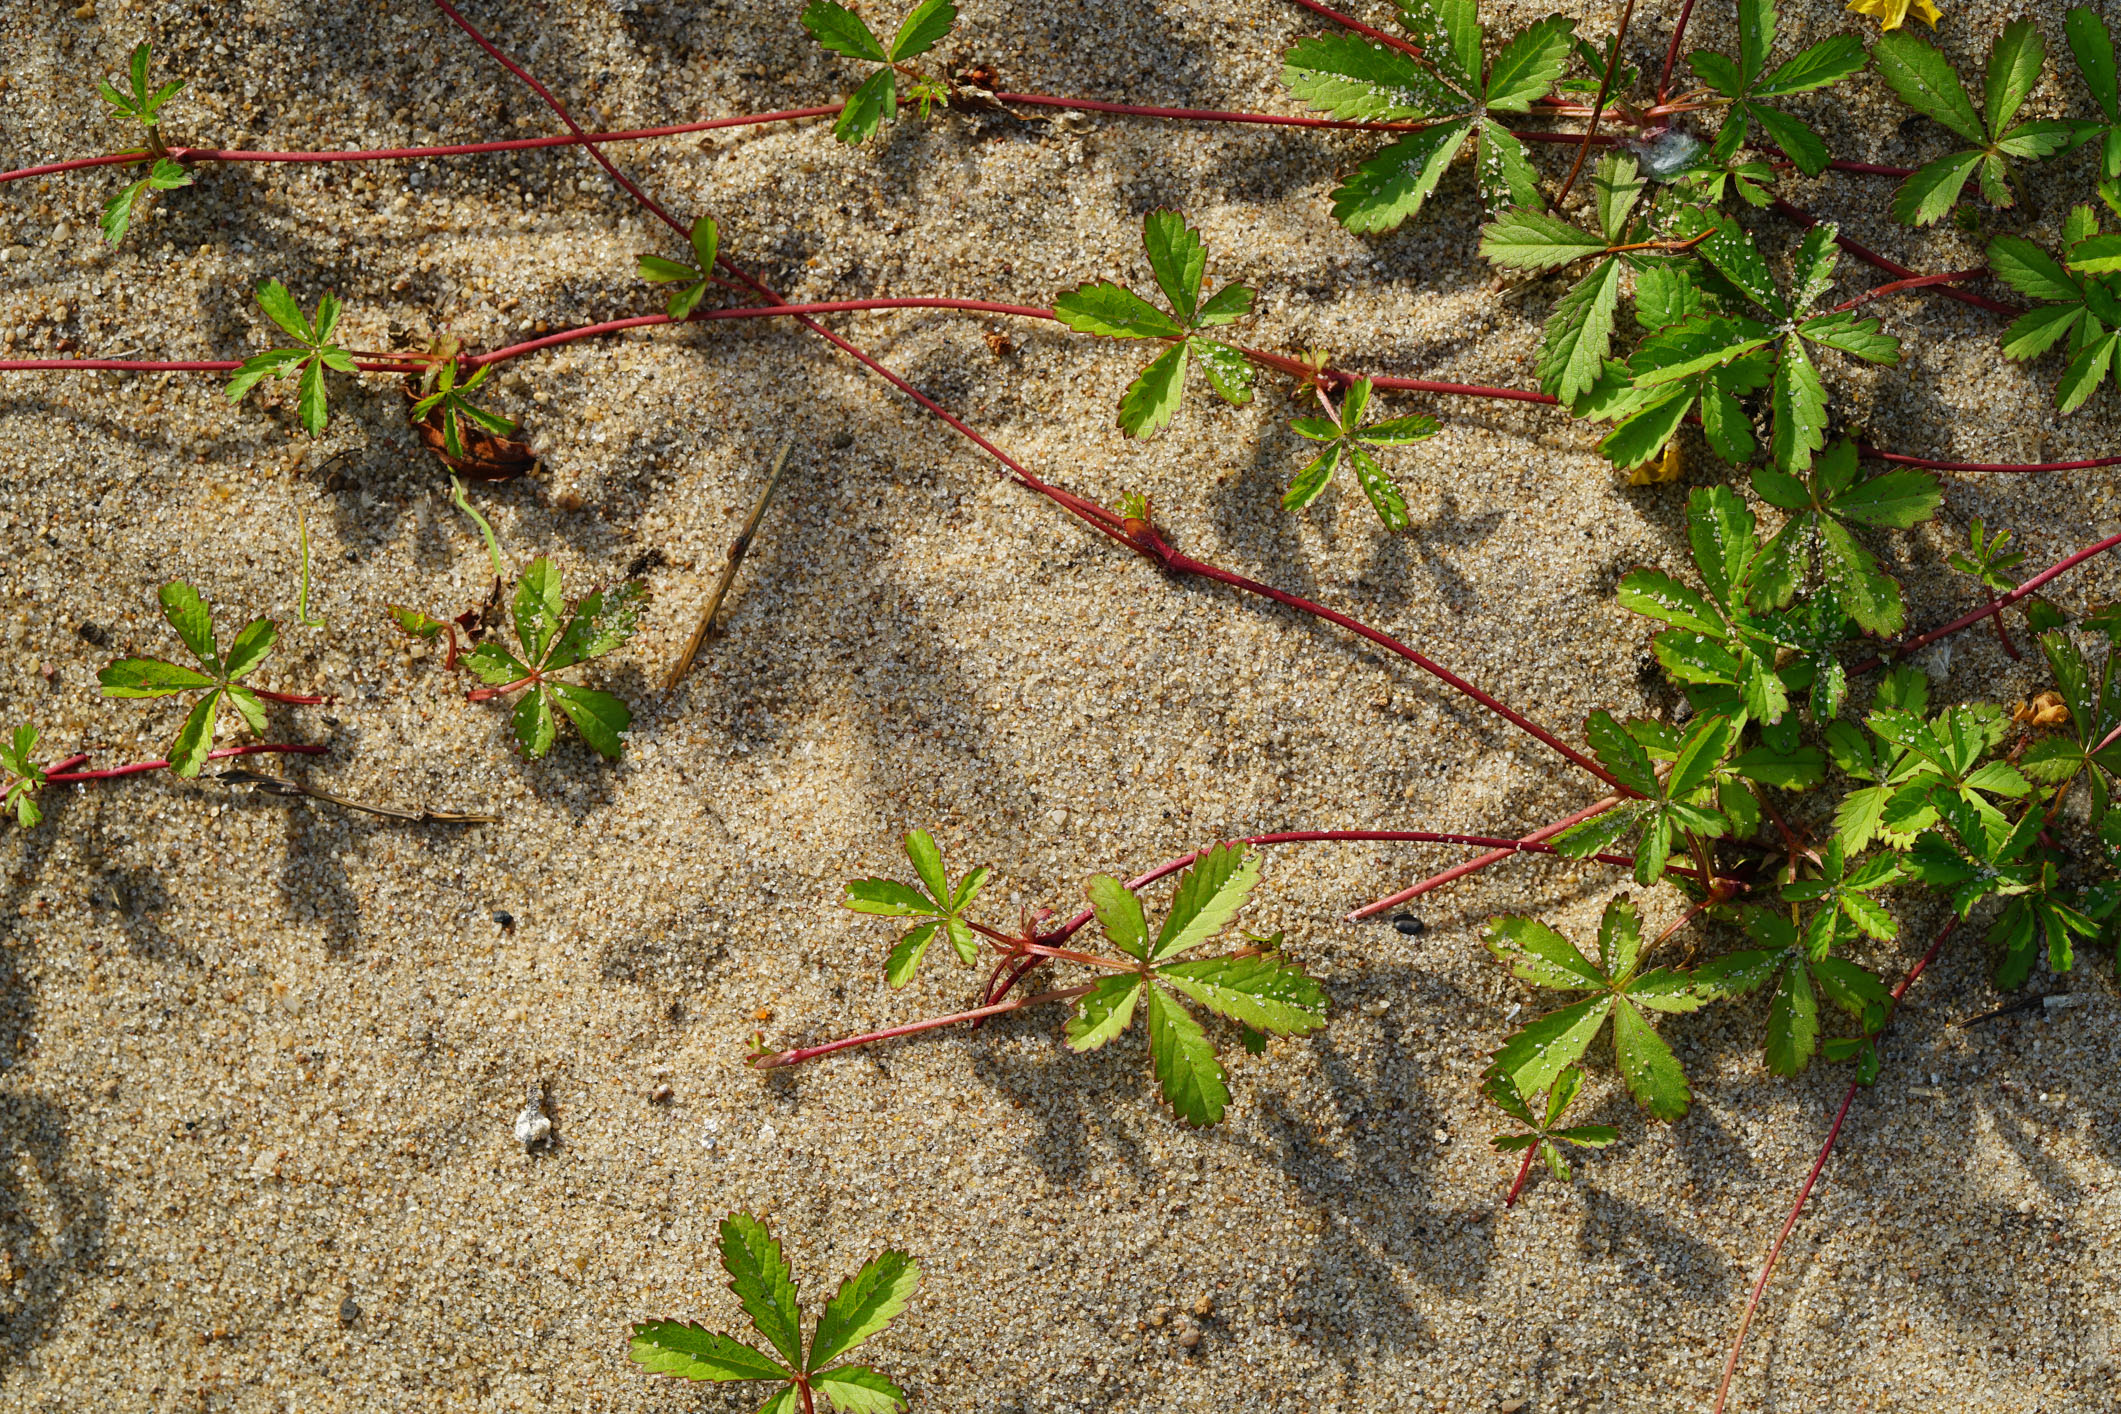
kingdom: Plantae
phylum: Tracheophyta
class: Magnoliopsida
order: Rosales
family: Rosaceae
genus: Potentilla
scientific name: Potentilla reptans
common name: Creeping cinquefoil
